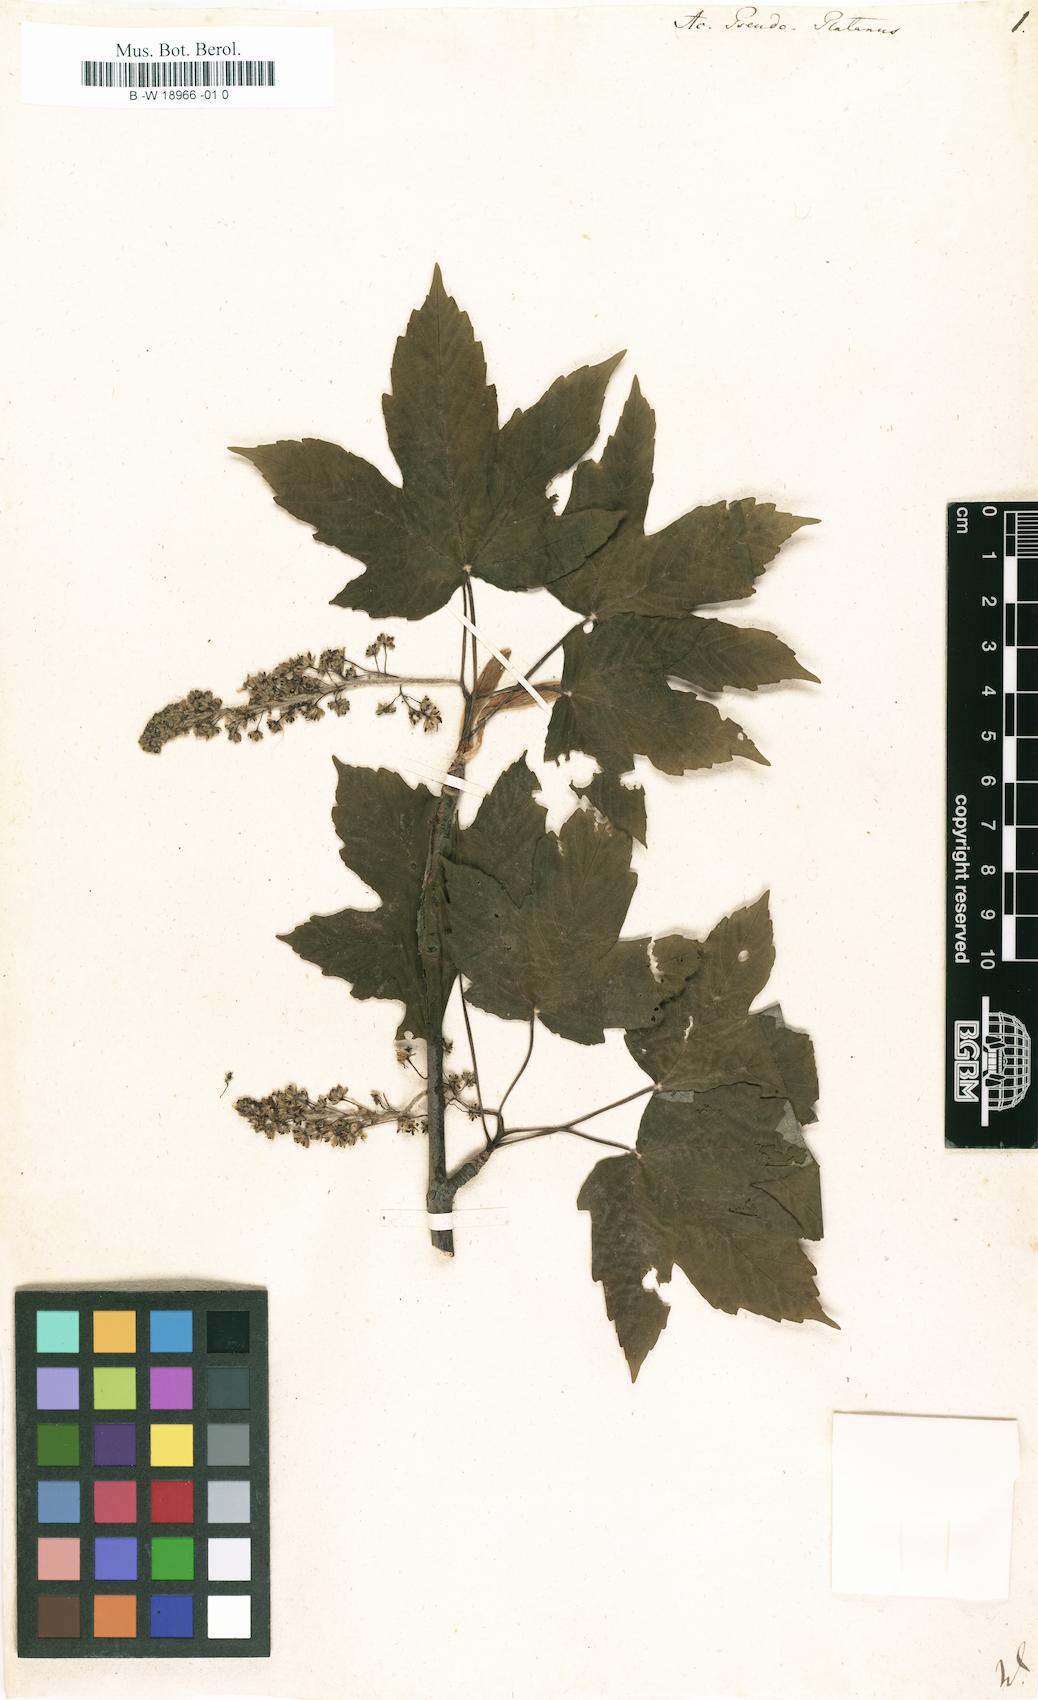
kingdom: Plantae
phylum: Tracheophyta
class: Magnoliopsida
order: Sapindales
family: Sapindaceae
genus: Acer
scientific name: Acer pseudoplatanus
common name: Sycamore
